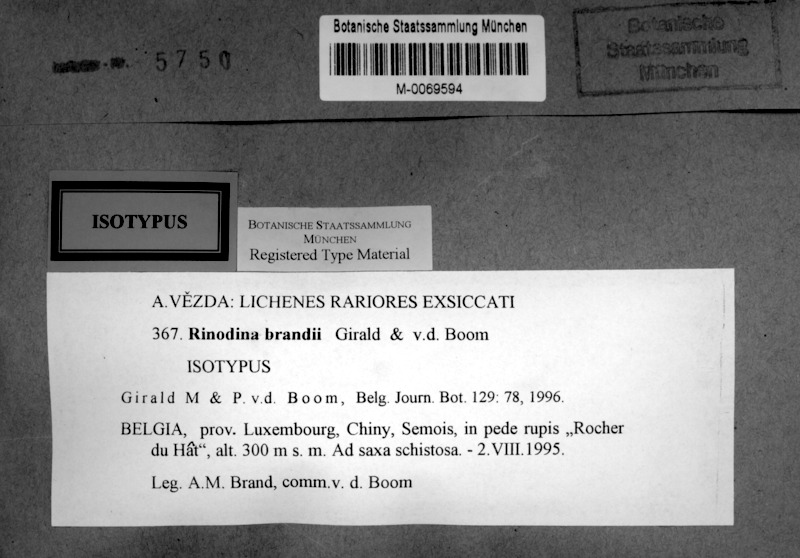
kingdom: Fungi
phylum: Ascomycota
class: Lecanoromycetes
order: Caliciales
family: Physciaceae
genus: Rinodina
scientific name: Rinodina
